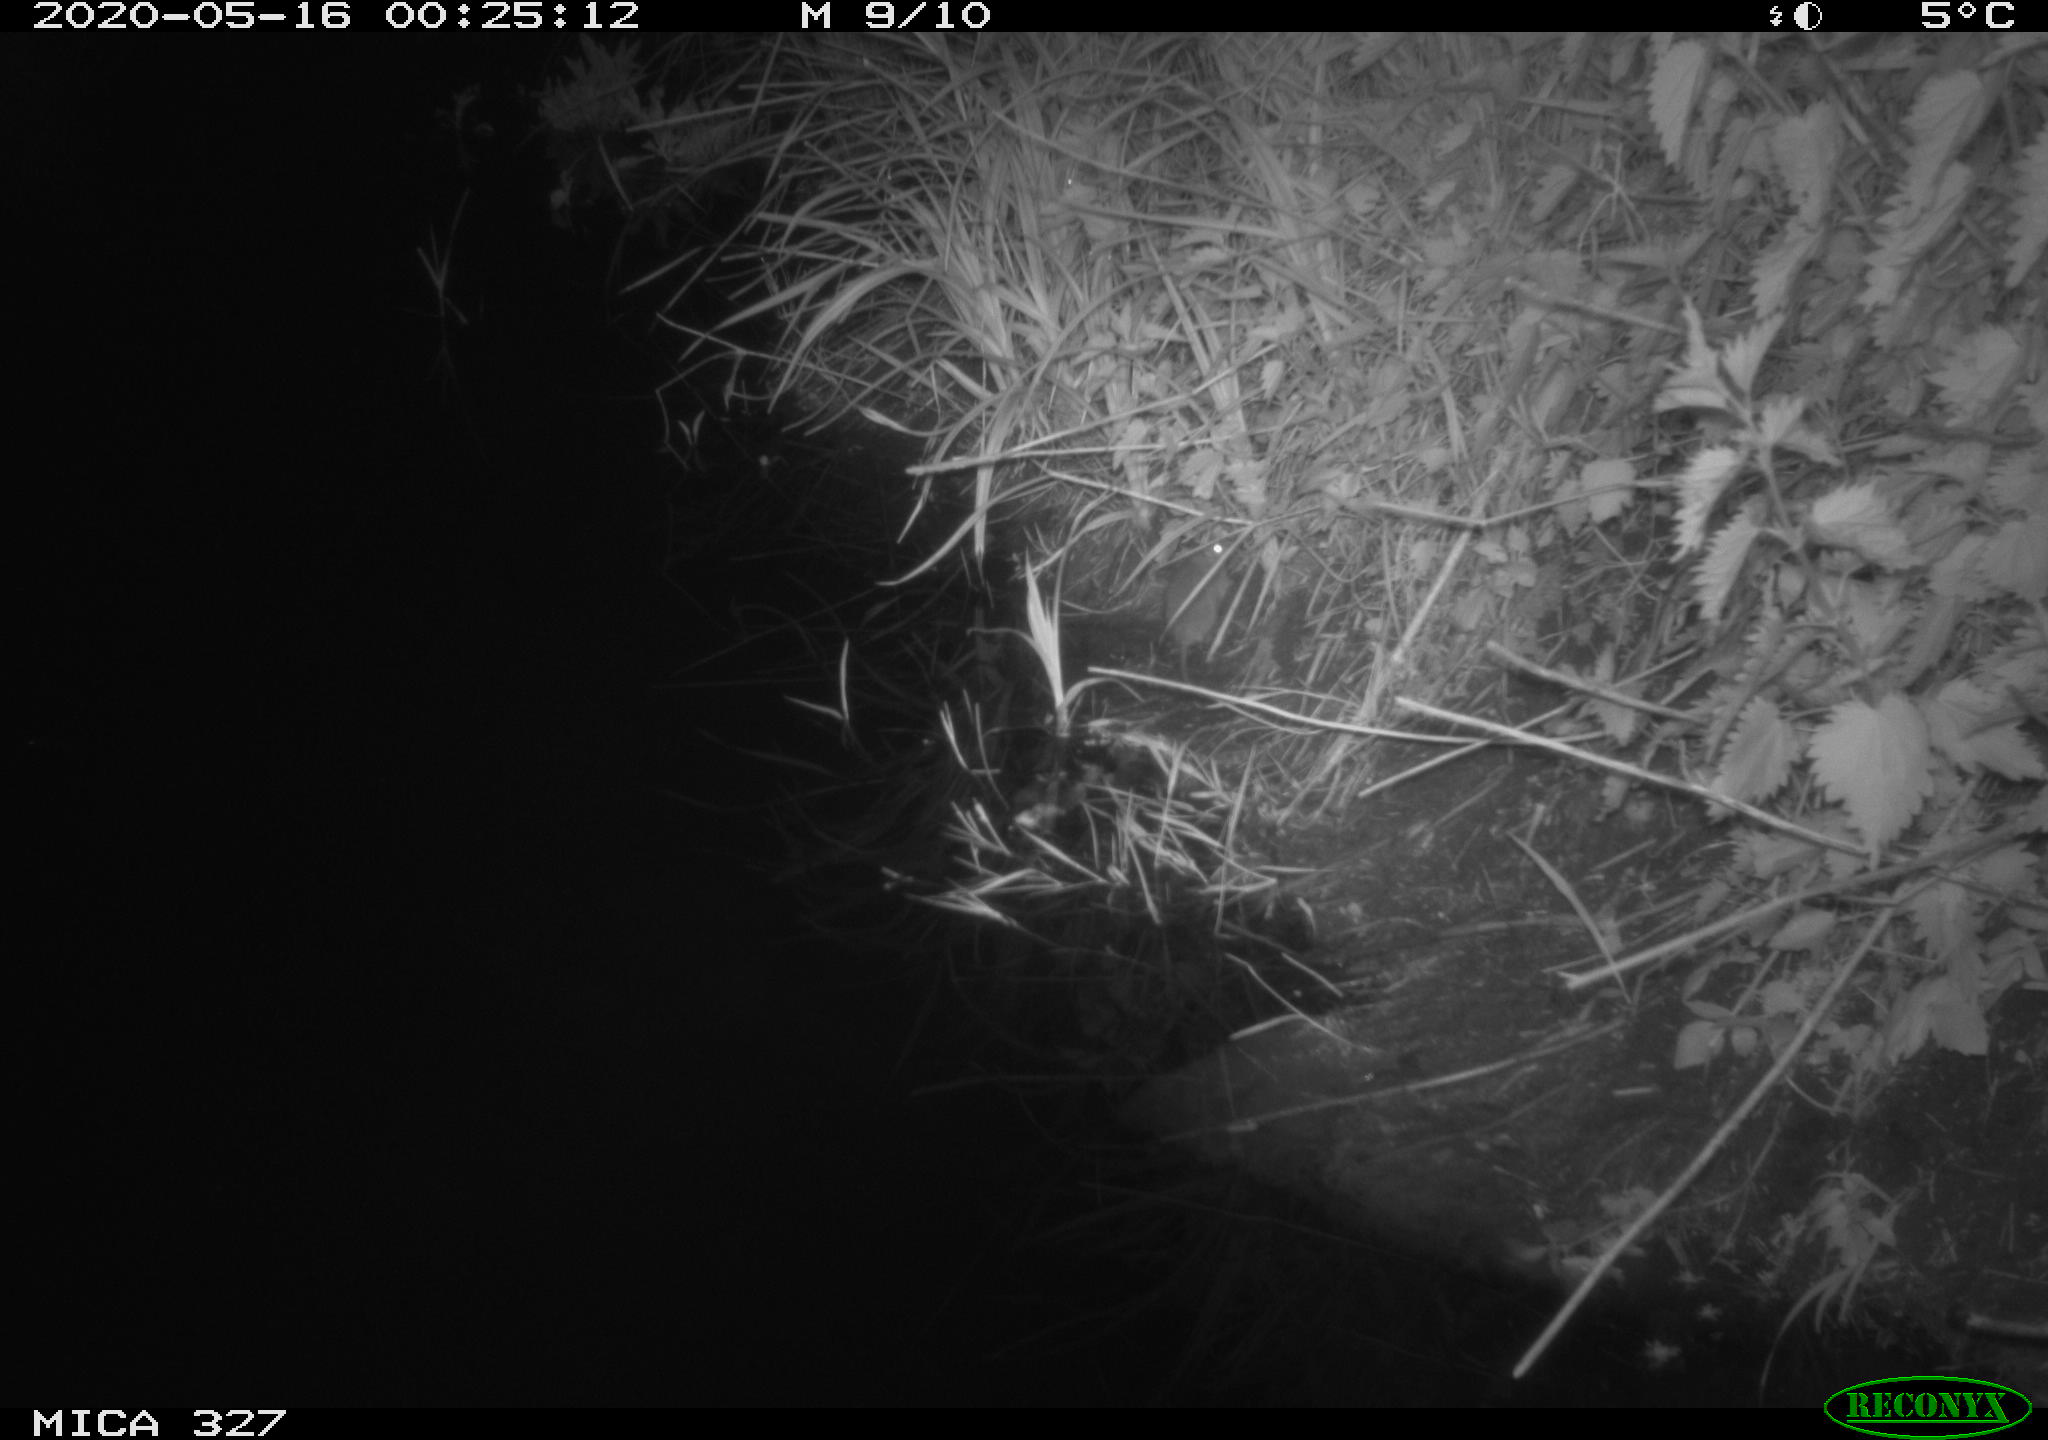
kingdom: Animalia
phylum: Chordata
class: Mammalia
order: Rodentia
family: Muridae
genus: Rattus
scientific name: Rattus norvegicus
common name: Brown rat
